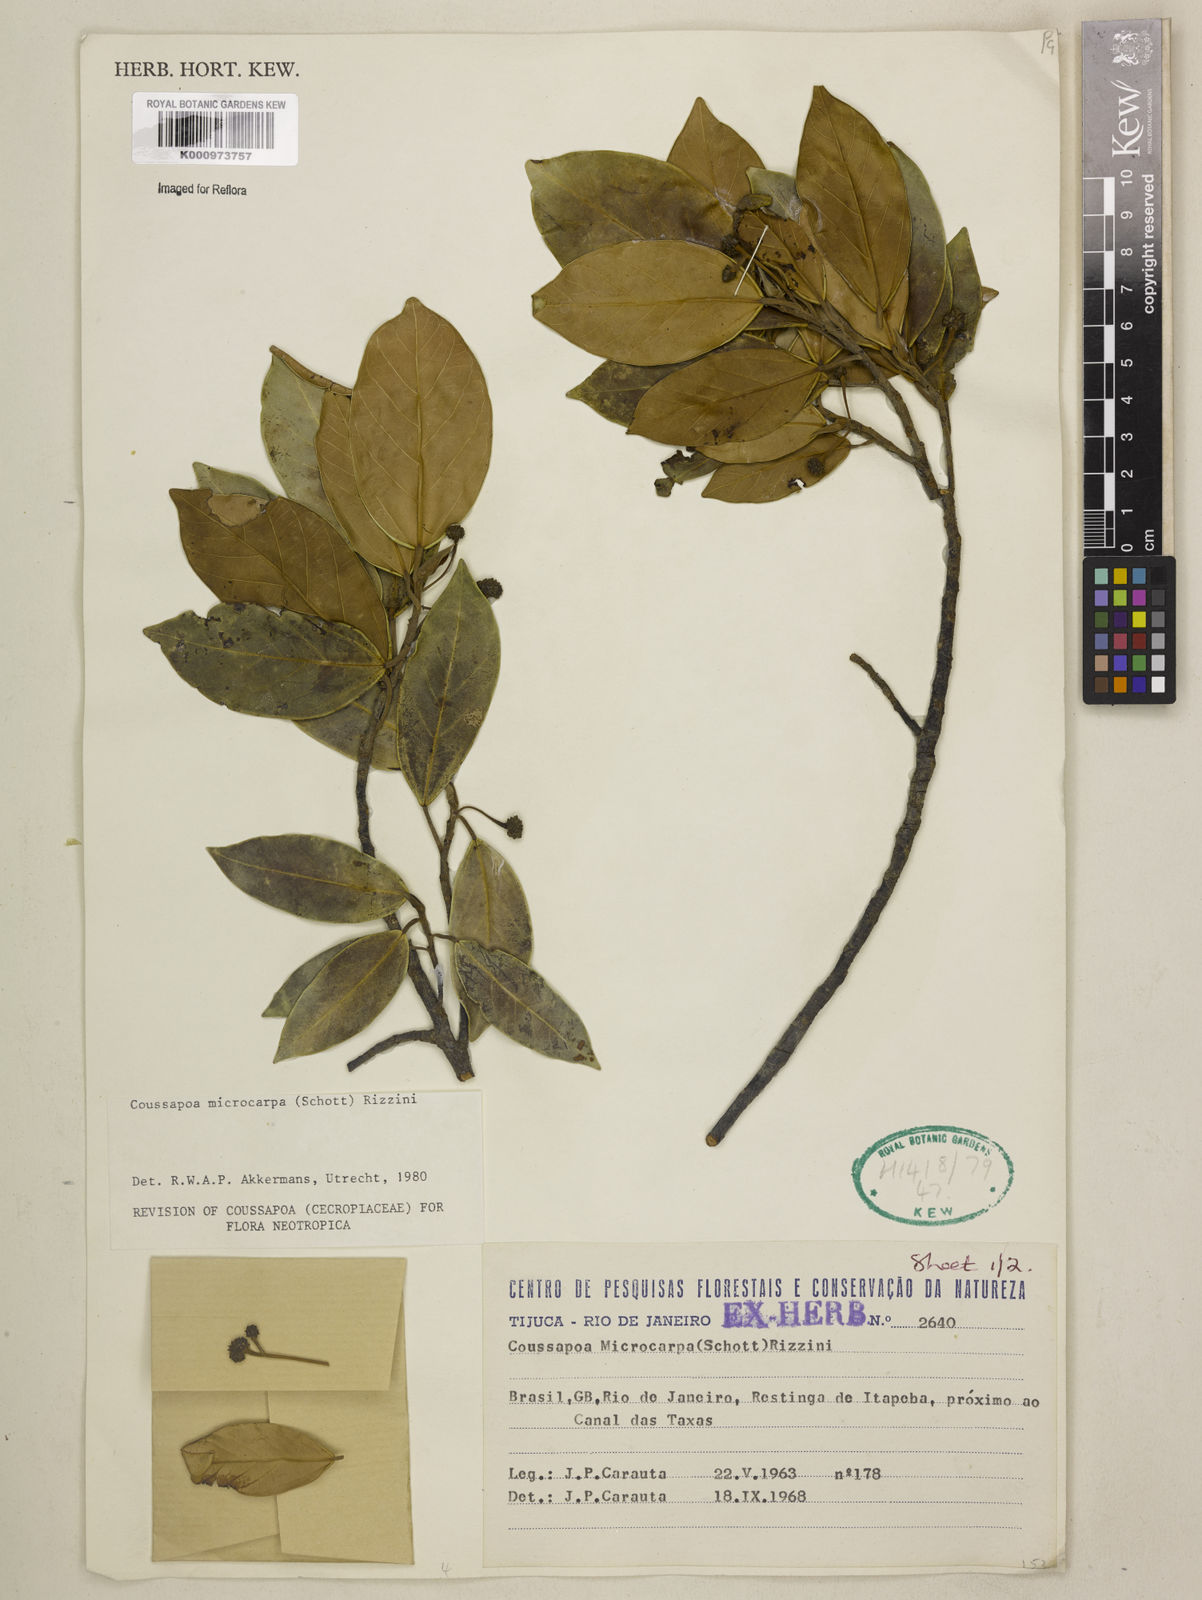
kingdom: Plantae
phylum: Tracheophyta
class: Magnoliopsida
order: Rosales
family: Urticaceae
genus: Coussapoa
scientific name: Coussapoa microcarpa
